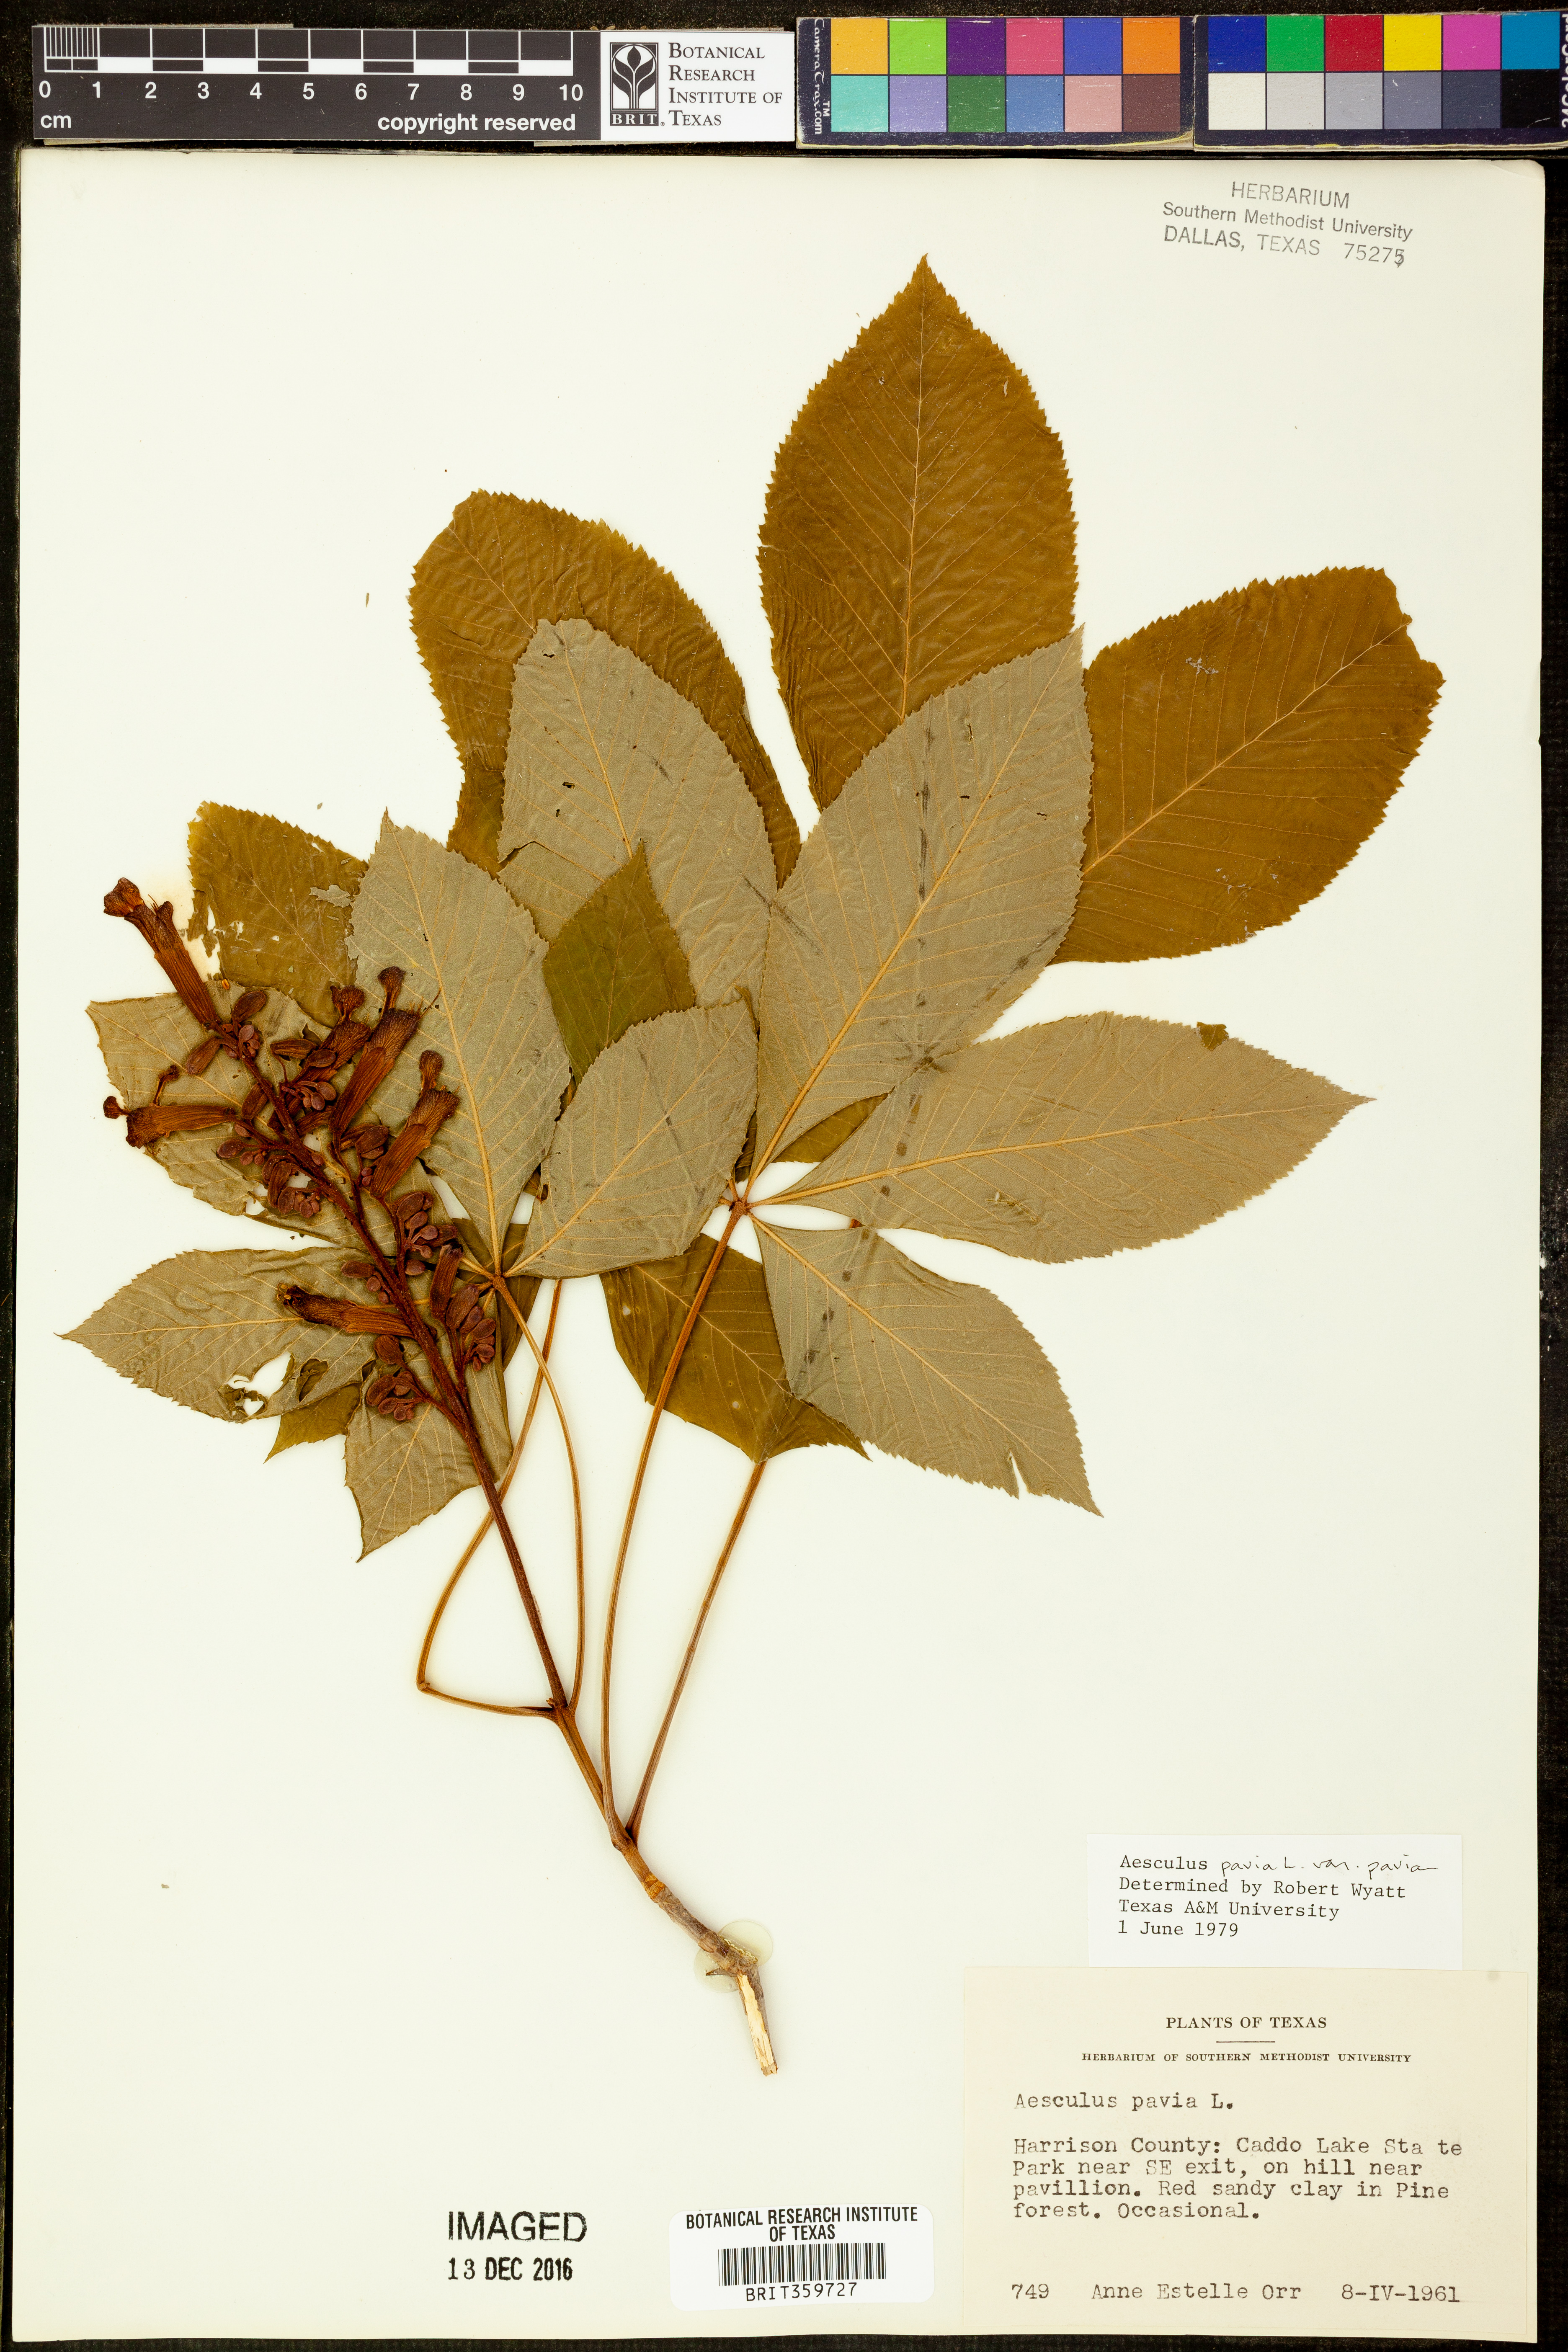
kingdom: Plantae
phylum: Tracheophyta
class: Magnoliopsida
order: Sapindales
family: Sapindaceae
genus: Aesculus
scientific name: Aesculus pavia
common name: Red buckeye
